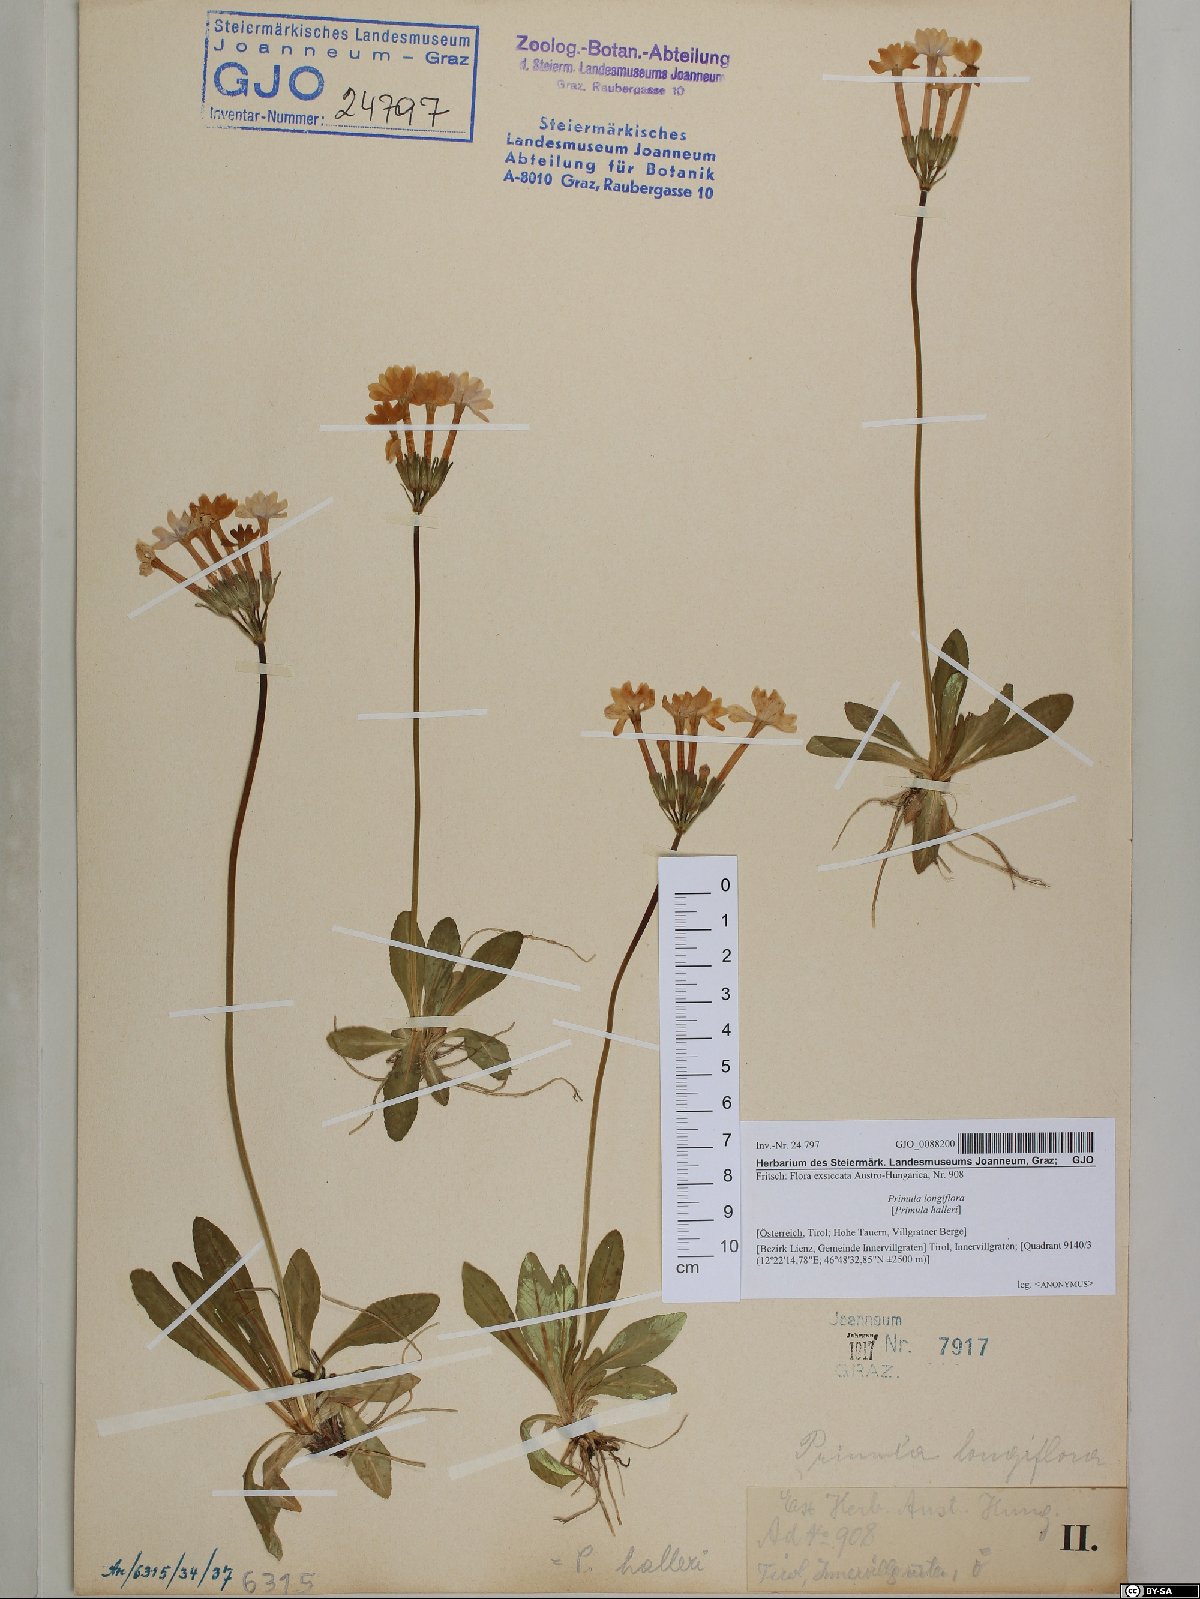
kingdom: Plantae
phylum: Tracheophyta
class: Magnoliopsida
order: Ericales
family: Primulaceae
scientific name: Primulaceae
